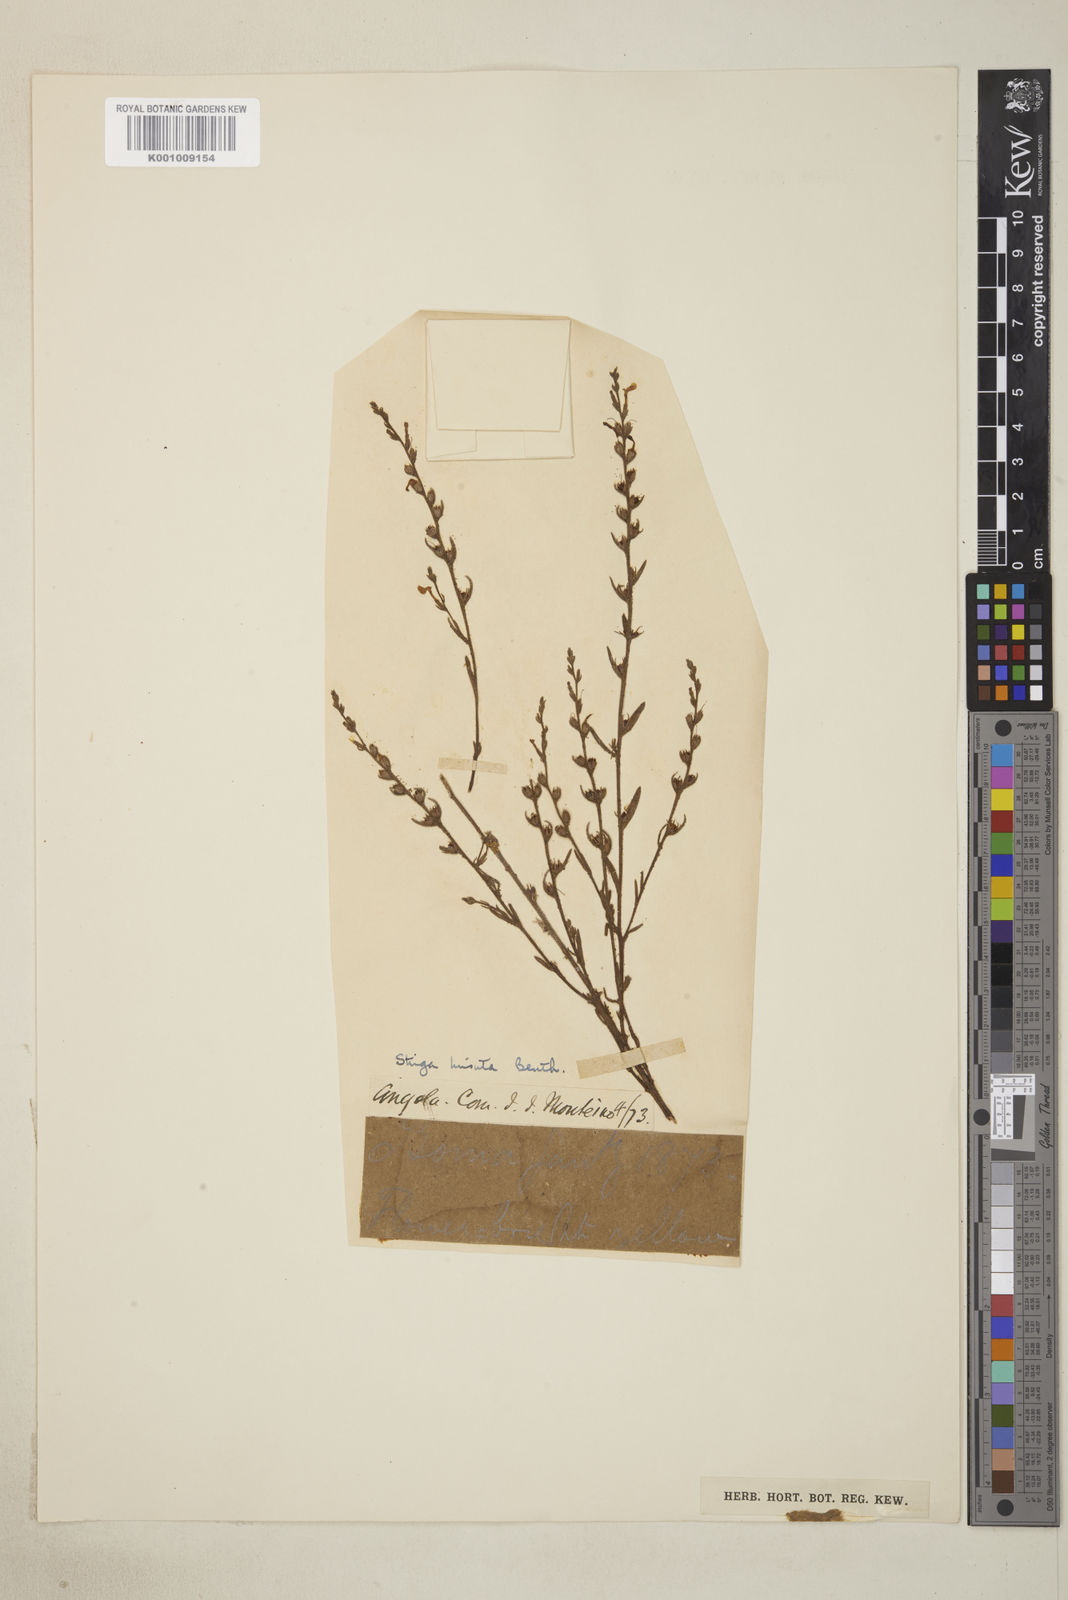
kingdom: Plantae
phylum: Tracheophyta
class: Magnoliopsida
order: Lamiales
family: Orobanchaceae
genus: Striga
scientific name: Striga asiatica
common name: Asiatic witchweed
